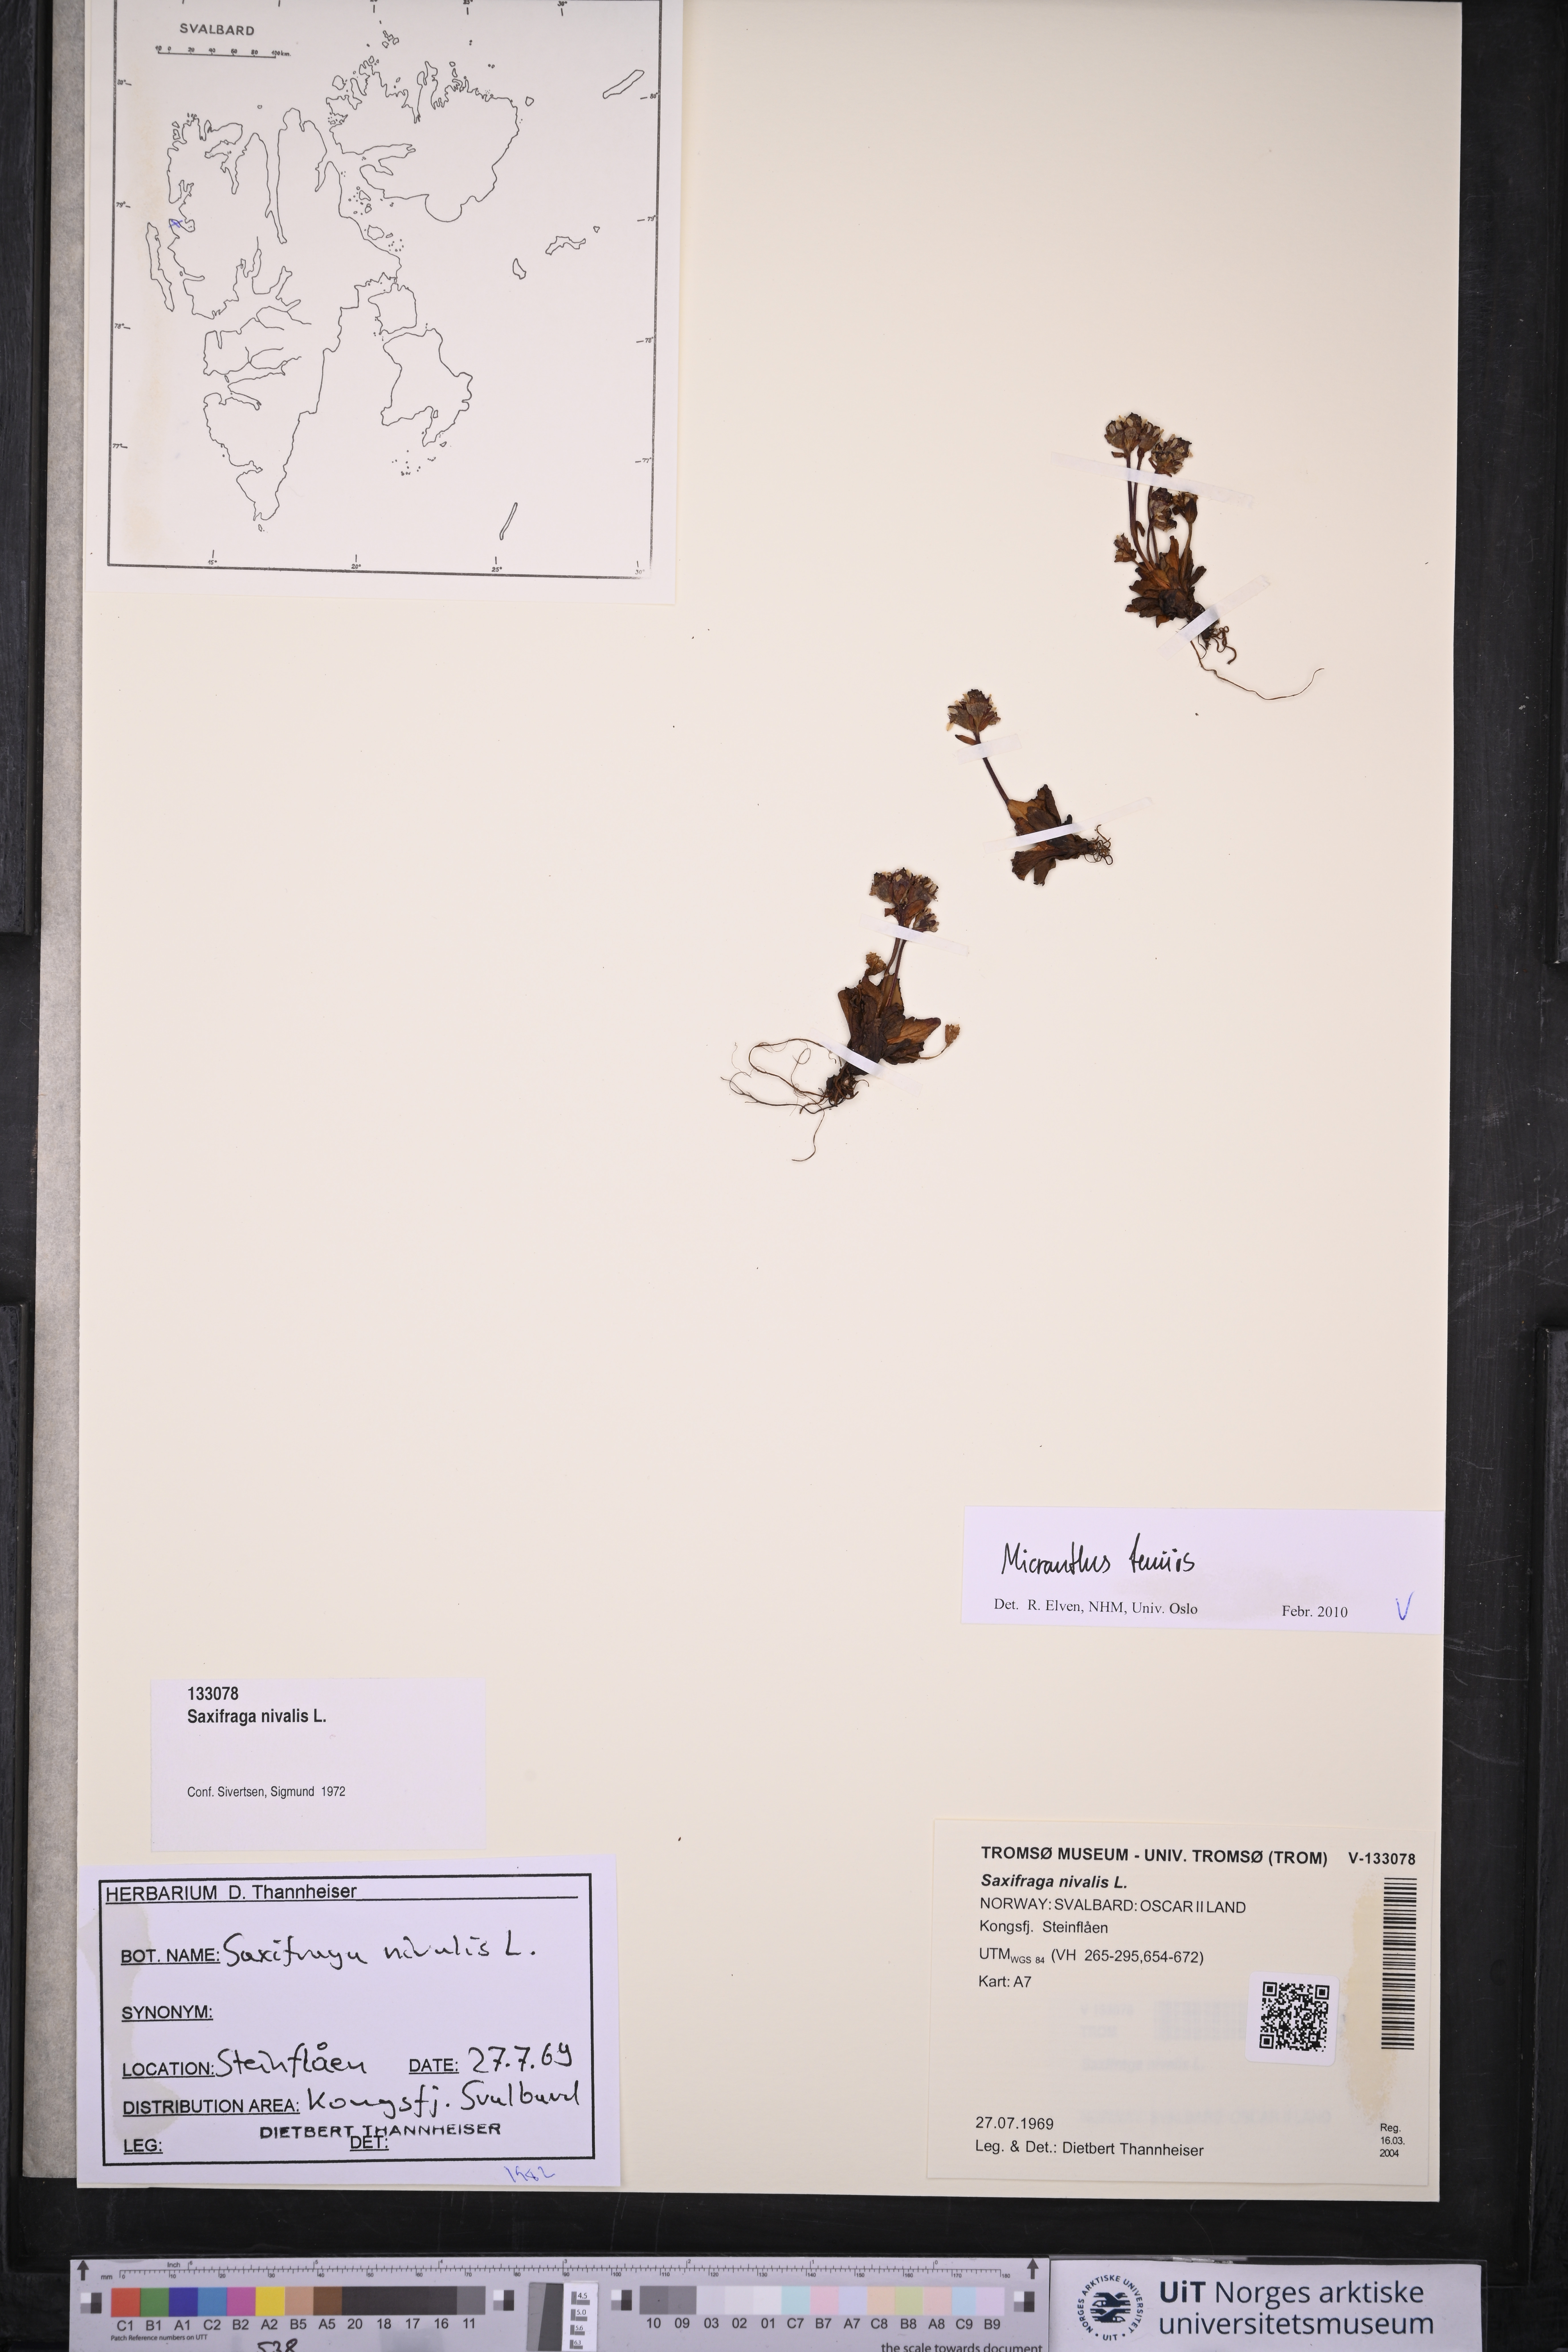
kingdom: Plantae
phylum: Tracheophyta
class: Magnoliopsida
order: Saxifragales
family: Saxifragaceae
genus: Micranthes
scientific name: Micranthes tenuis
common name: Ottertail pass saxifrage
